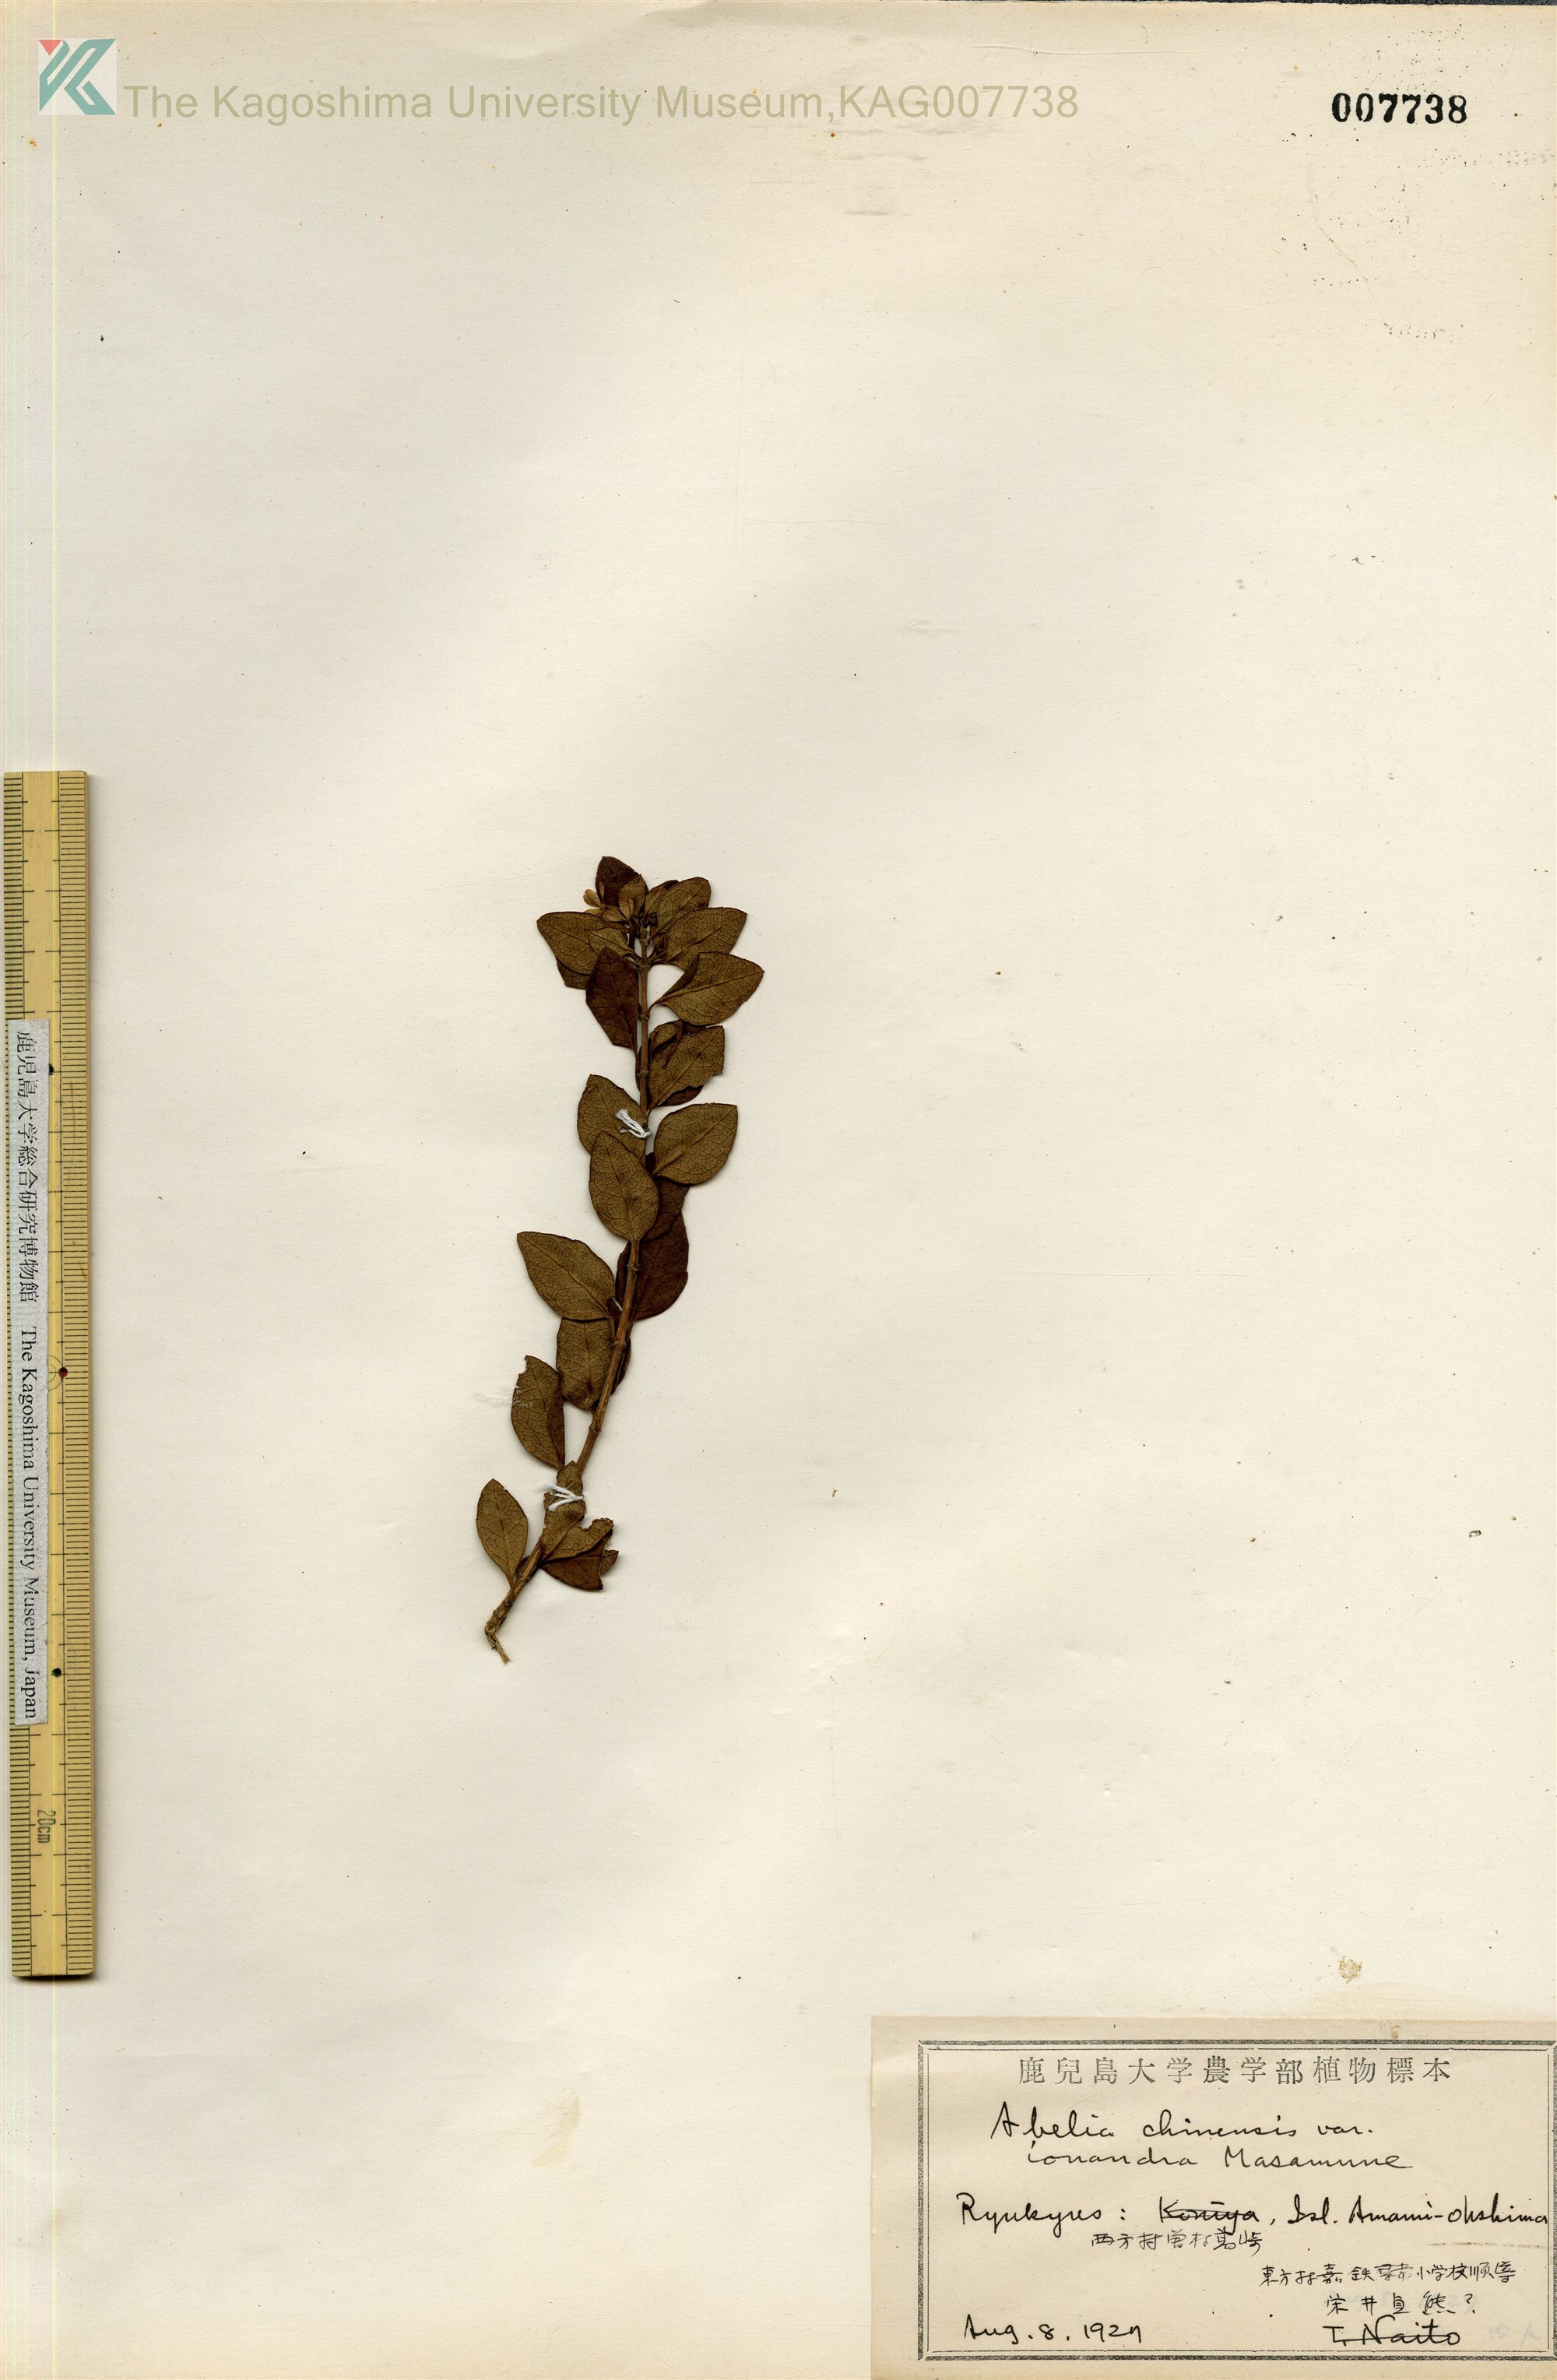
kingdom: Plantae
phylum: Tracheophyta
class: Magnoliopsida
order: Dipsacales
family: Caprifoliaceae
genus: Abelia
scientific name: Abelia chinensis
